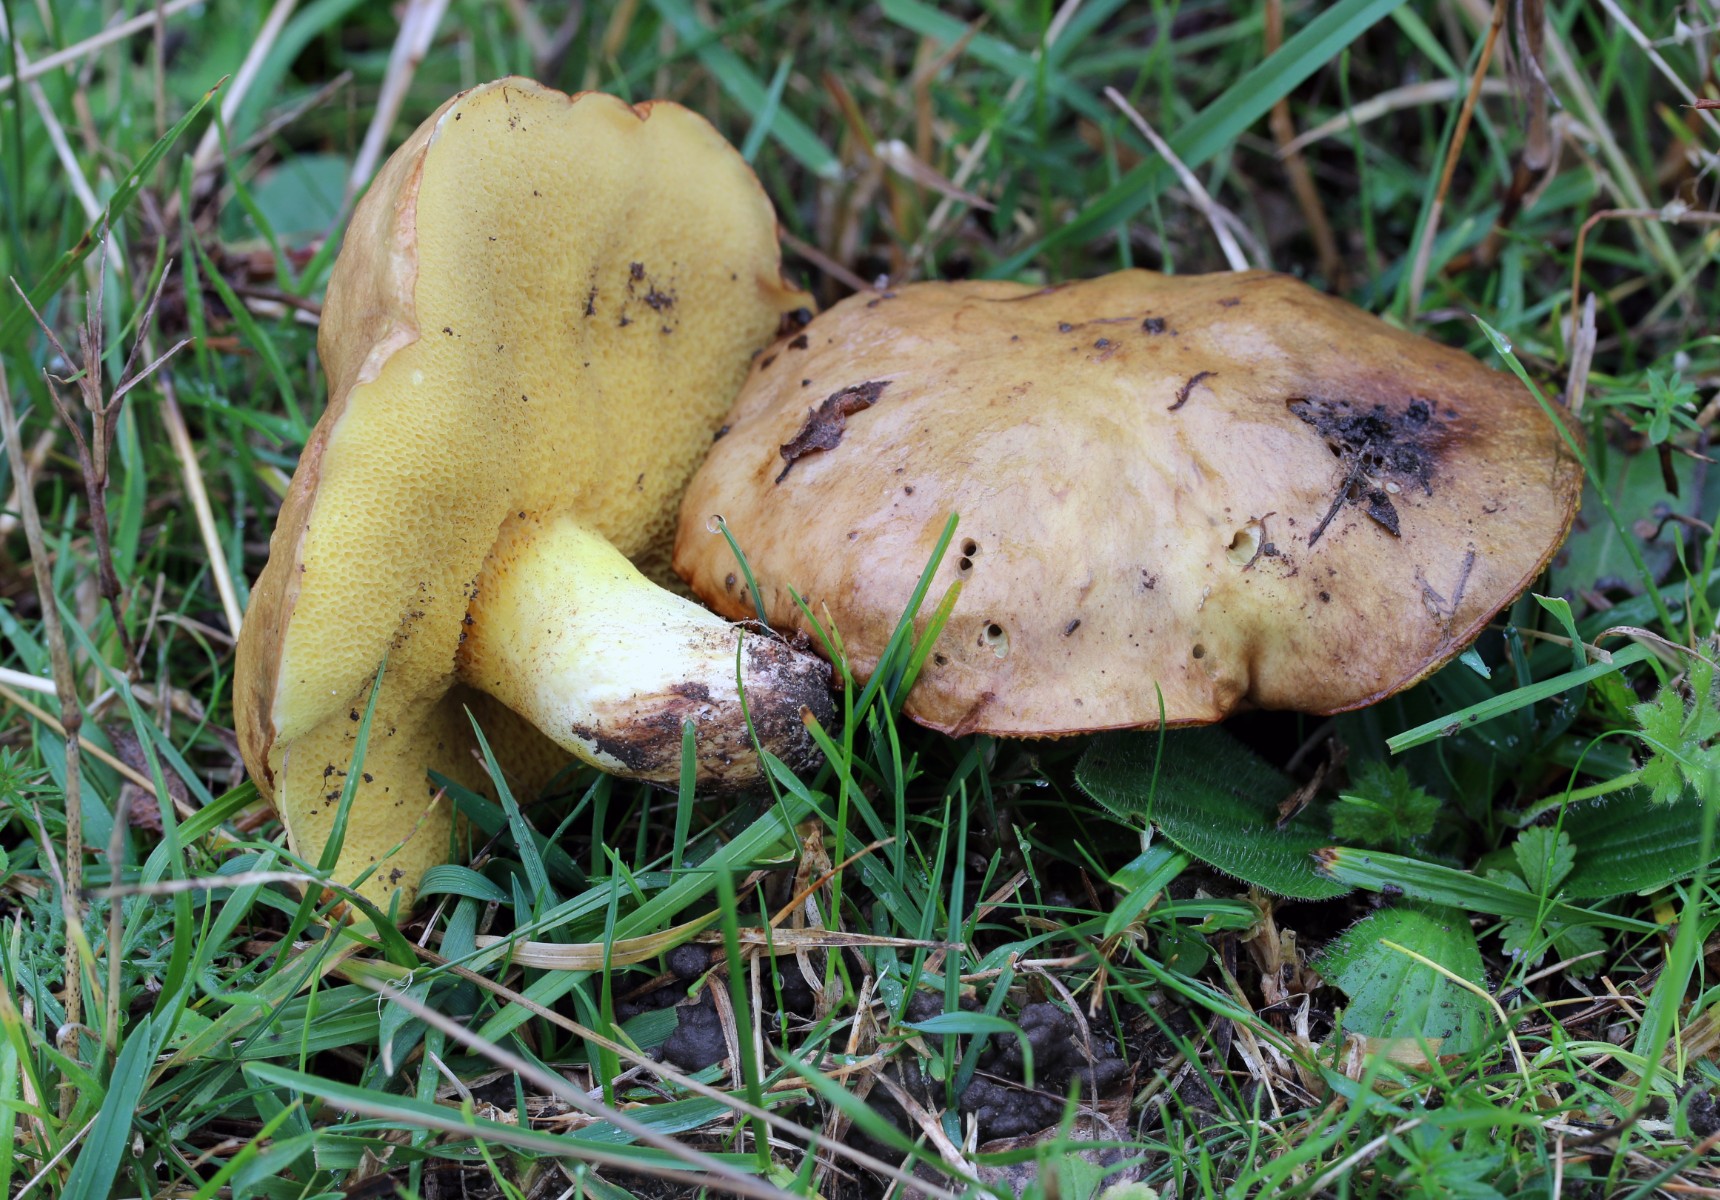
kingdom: Fungi
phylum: Basidiomycota
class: Agaricomycetes
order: Boletales
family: Suillaceae
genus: Suillus
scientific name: Suillus granulatus
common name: kornet slimrørhat
